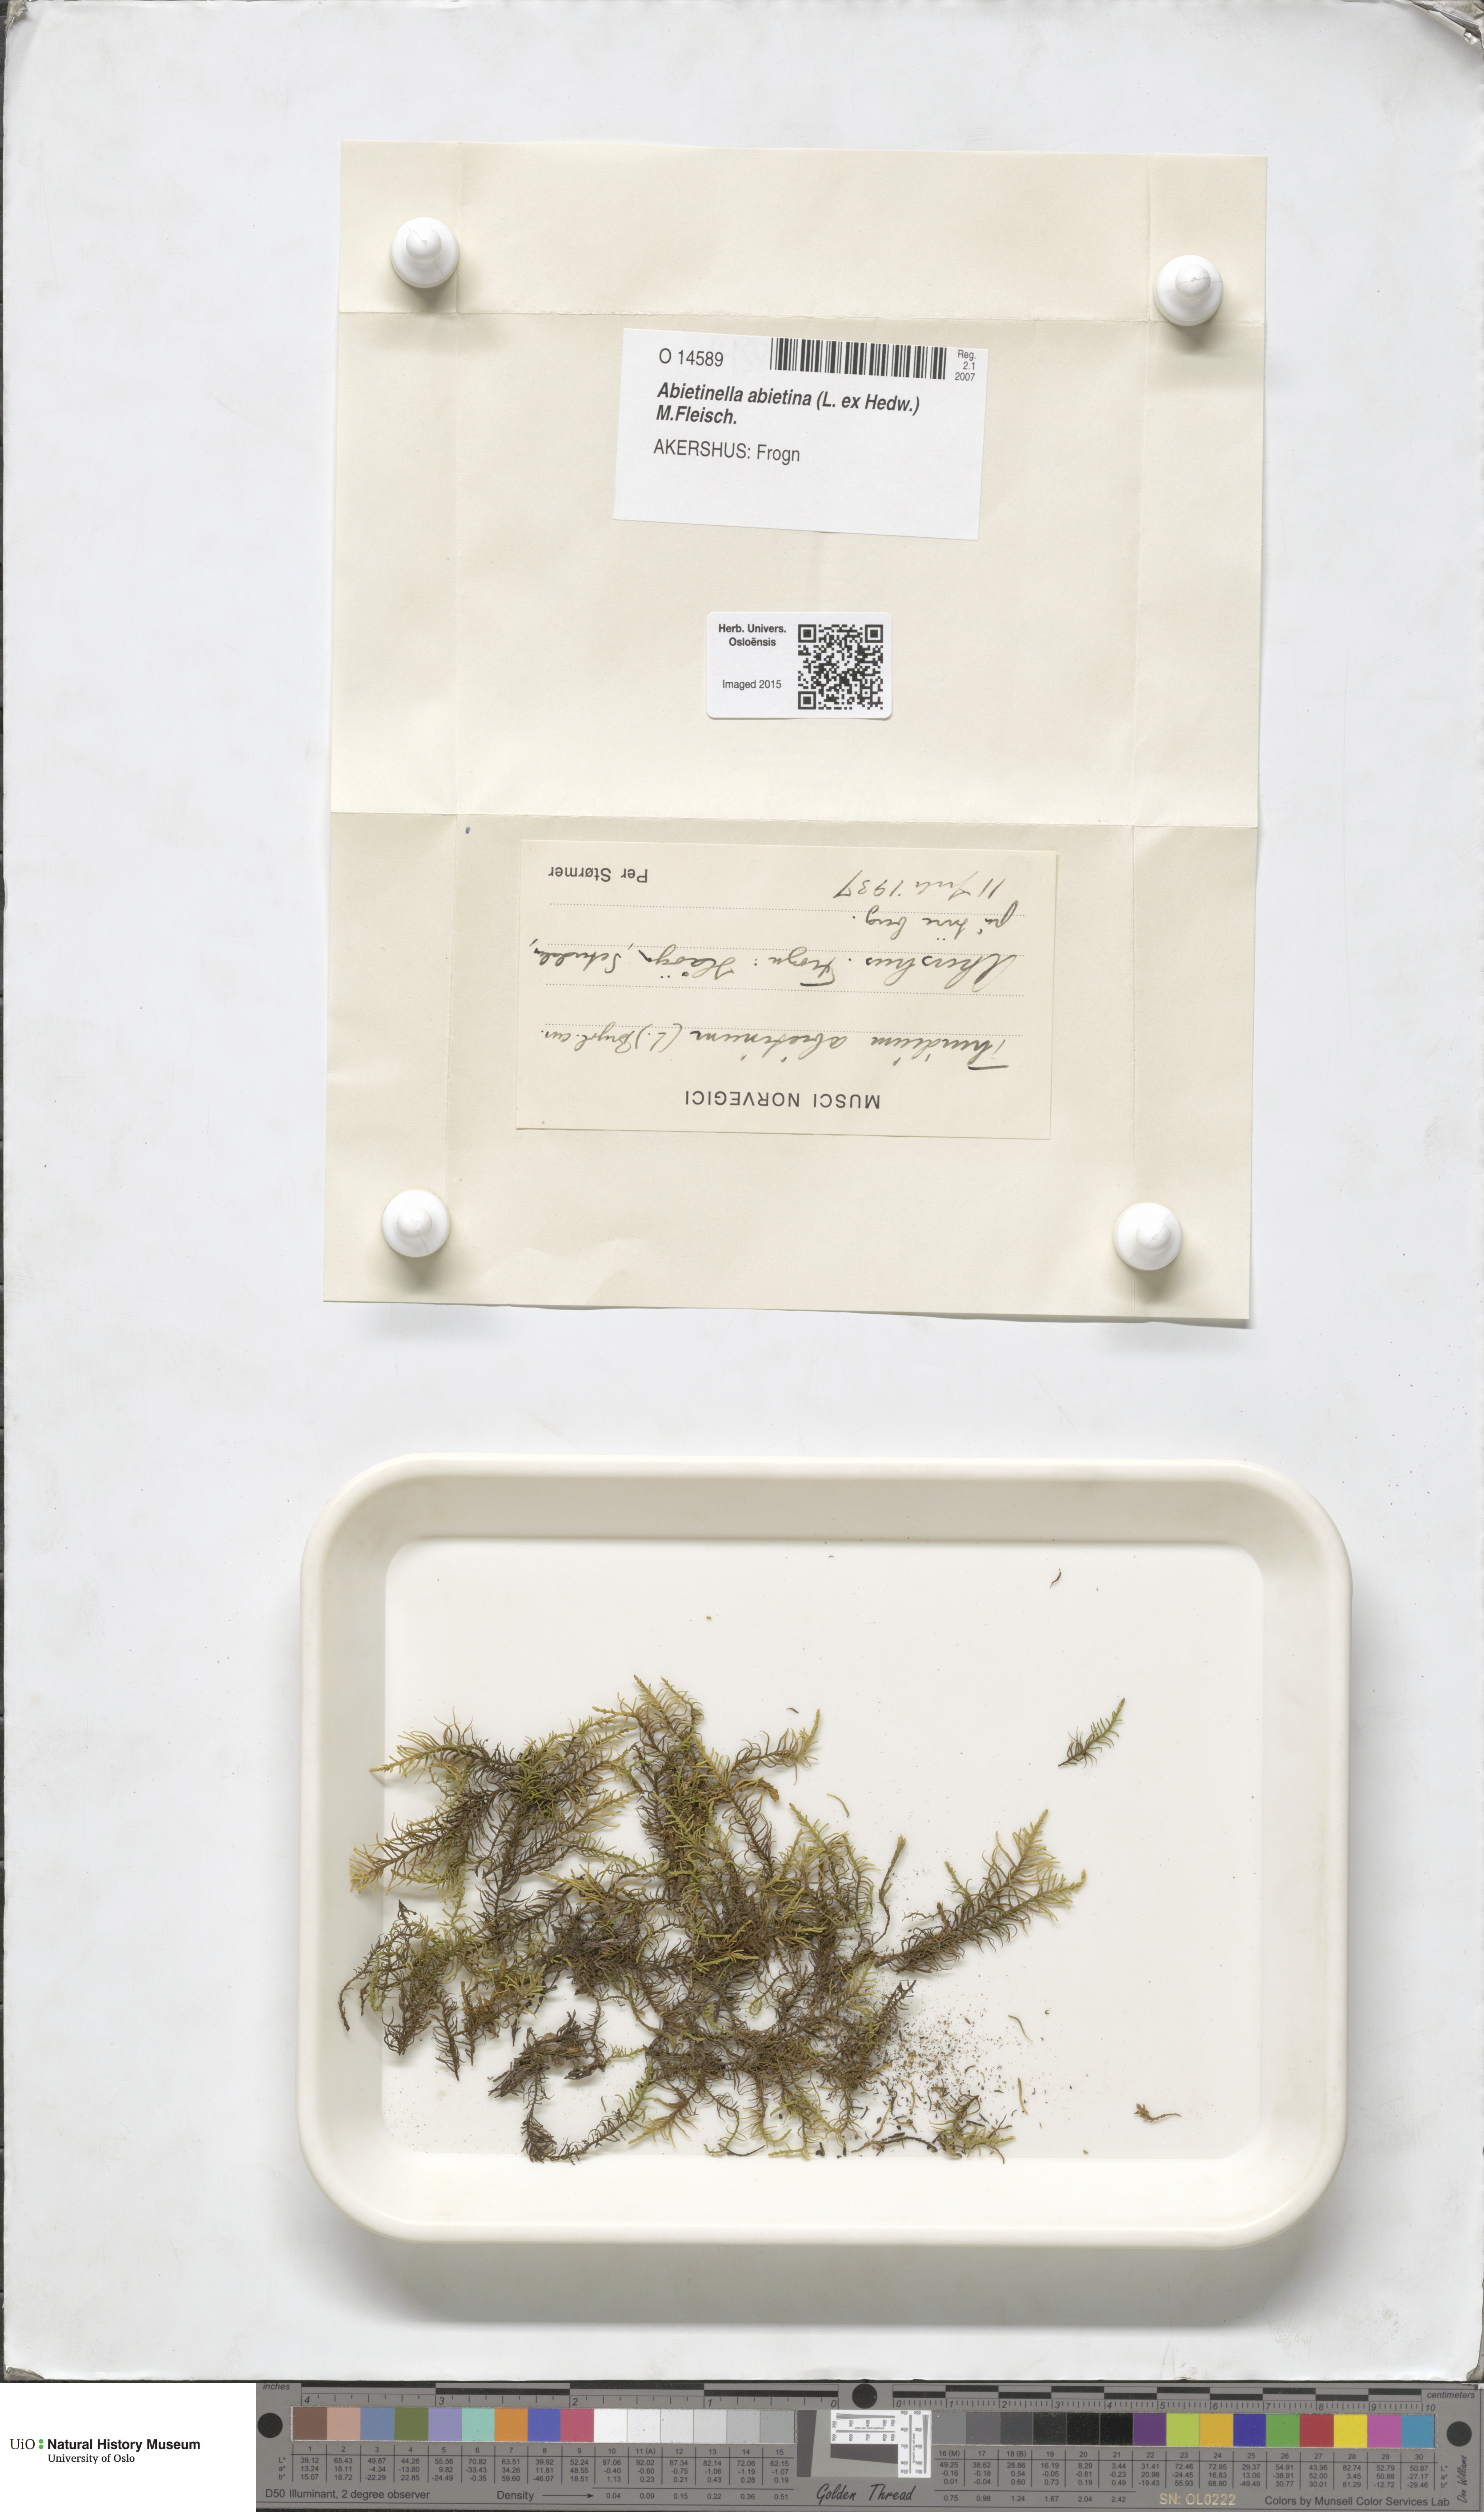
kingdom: Plantae
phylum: Bryophyta
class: Bryopsida
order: Hypnales
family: Thuidiaceae
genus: Abietinella
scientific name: Abietinella abietina
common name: Wiry fern moss
